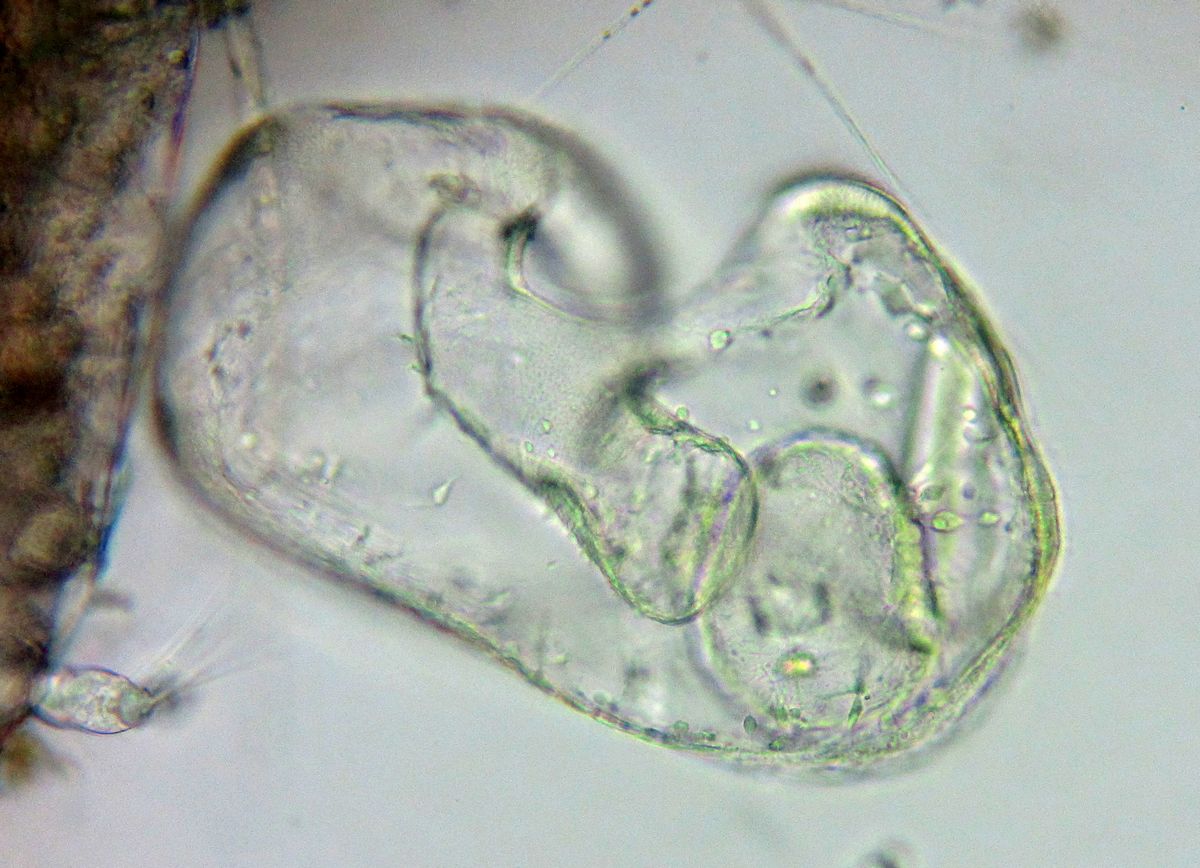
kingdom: Animalia
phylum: Echinodermata
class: Asteroidea
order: Forcipulatida
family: Asteriidae
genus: Asterias
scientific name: Asterias rubens
